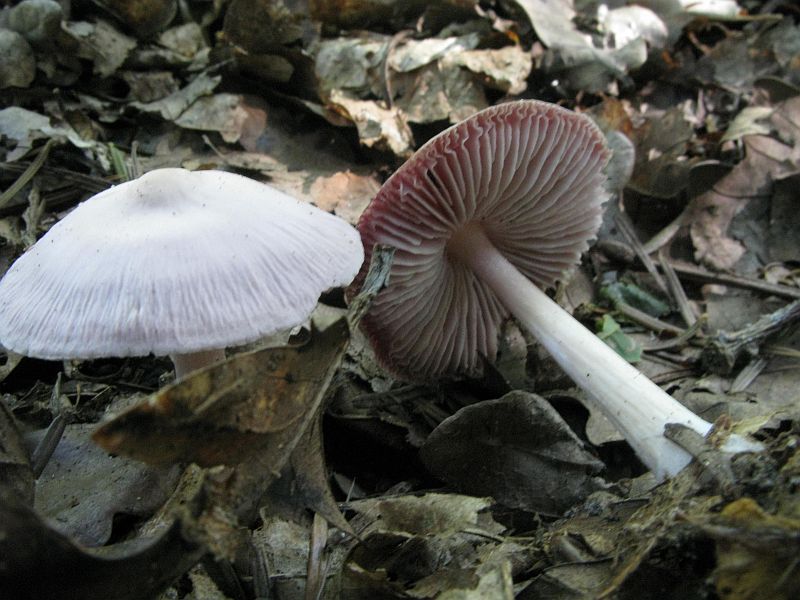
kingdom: Fungi
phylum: Basidiomycota
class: Agaricomycetes
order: Agaricales
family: Mycenaceae
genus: Mycena
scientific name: Mycena rosea
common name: rosa huesvamp
